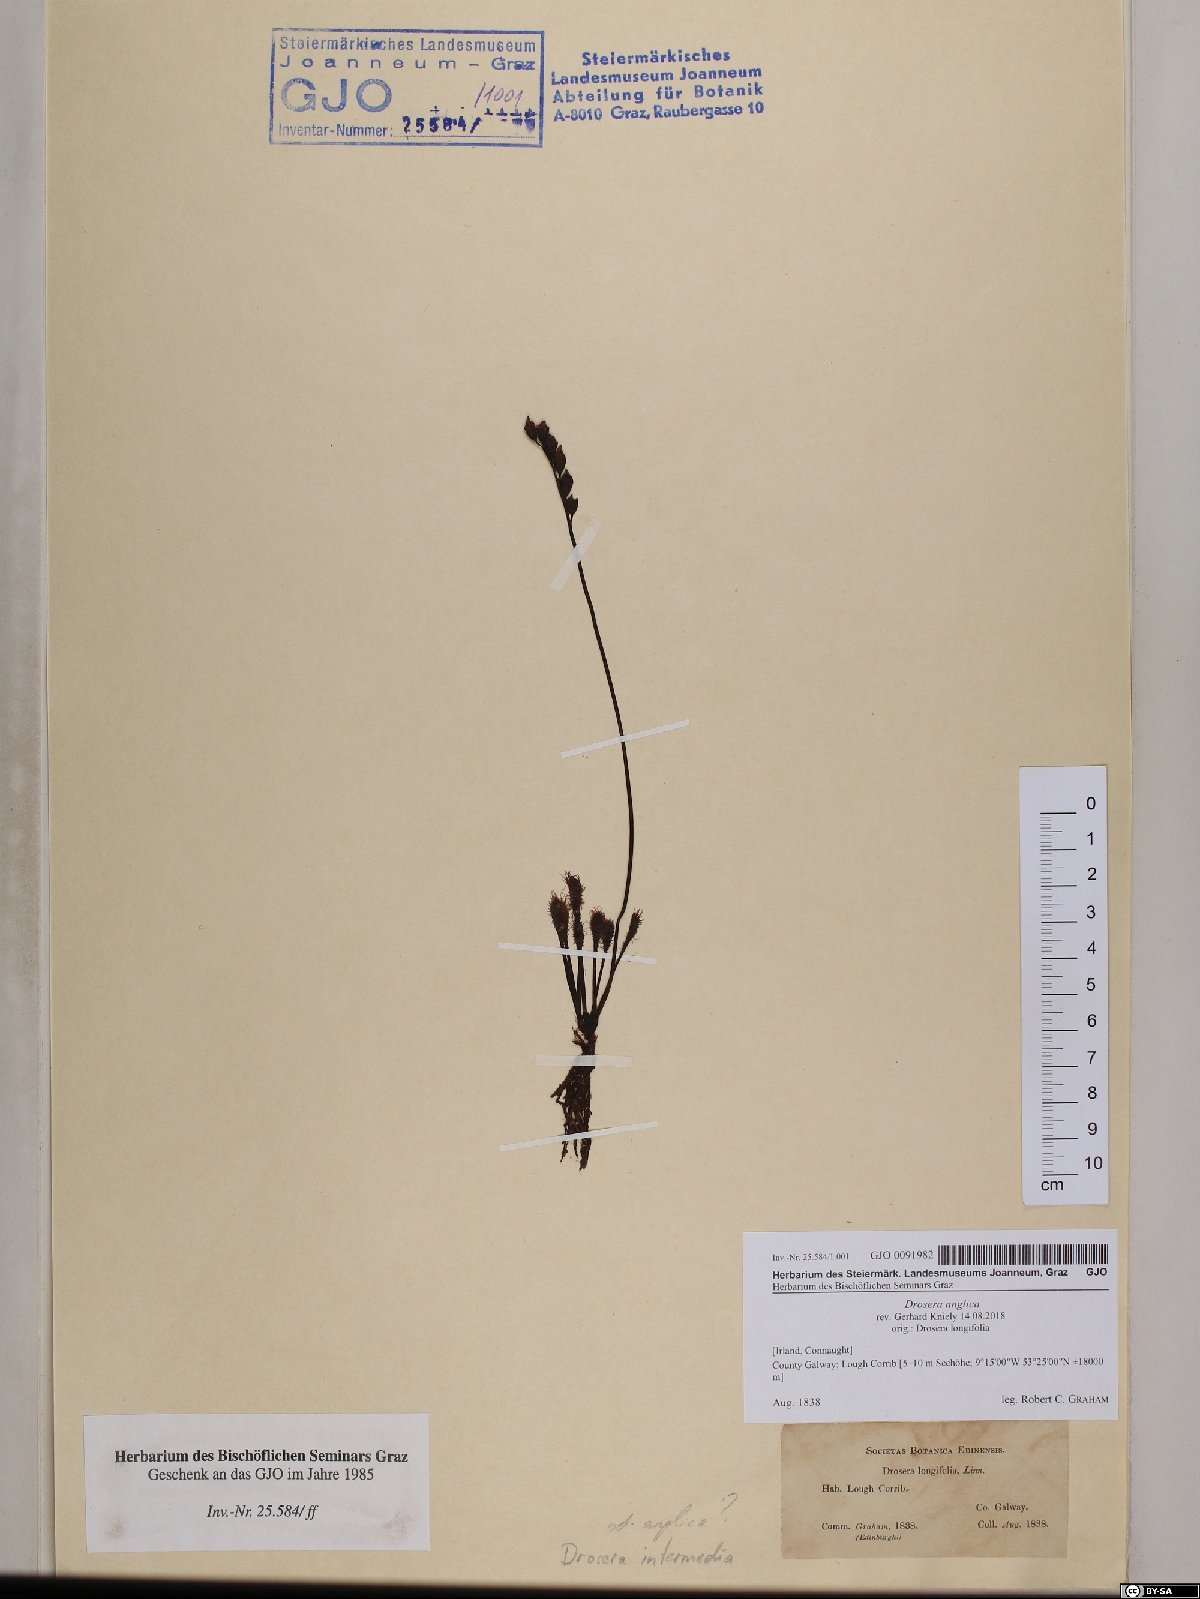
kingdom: Plantae
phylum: Tracheophyta
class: Magnoliopsida
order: Caryophyllales
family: Droseraceae
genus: Drosera
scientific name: Drosera anglica
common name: Great sundew
